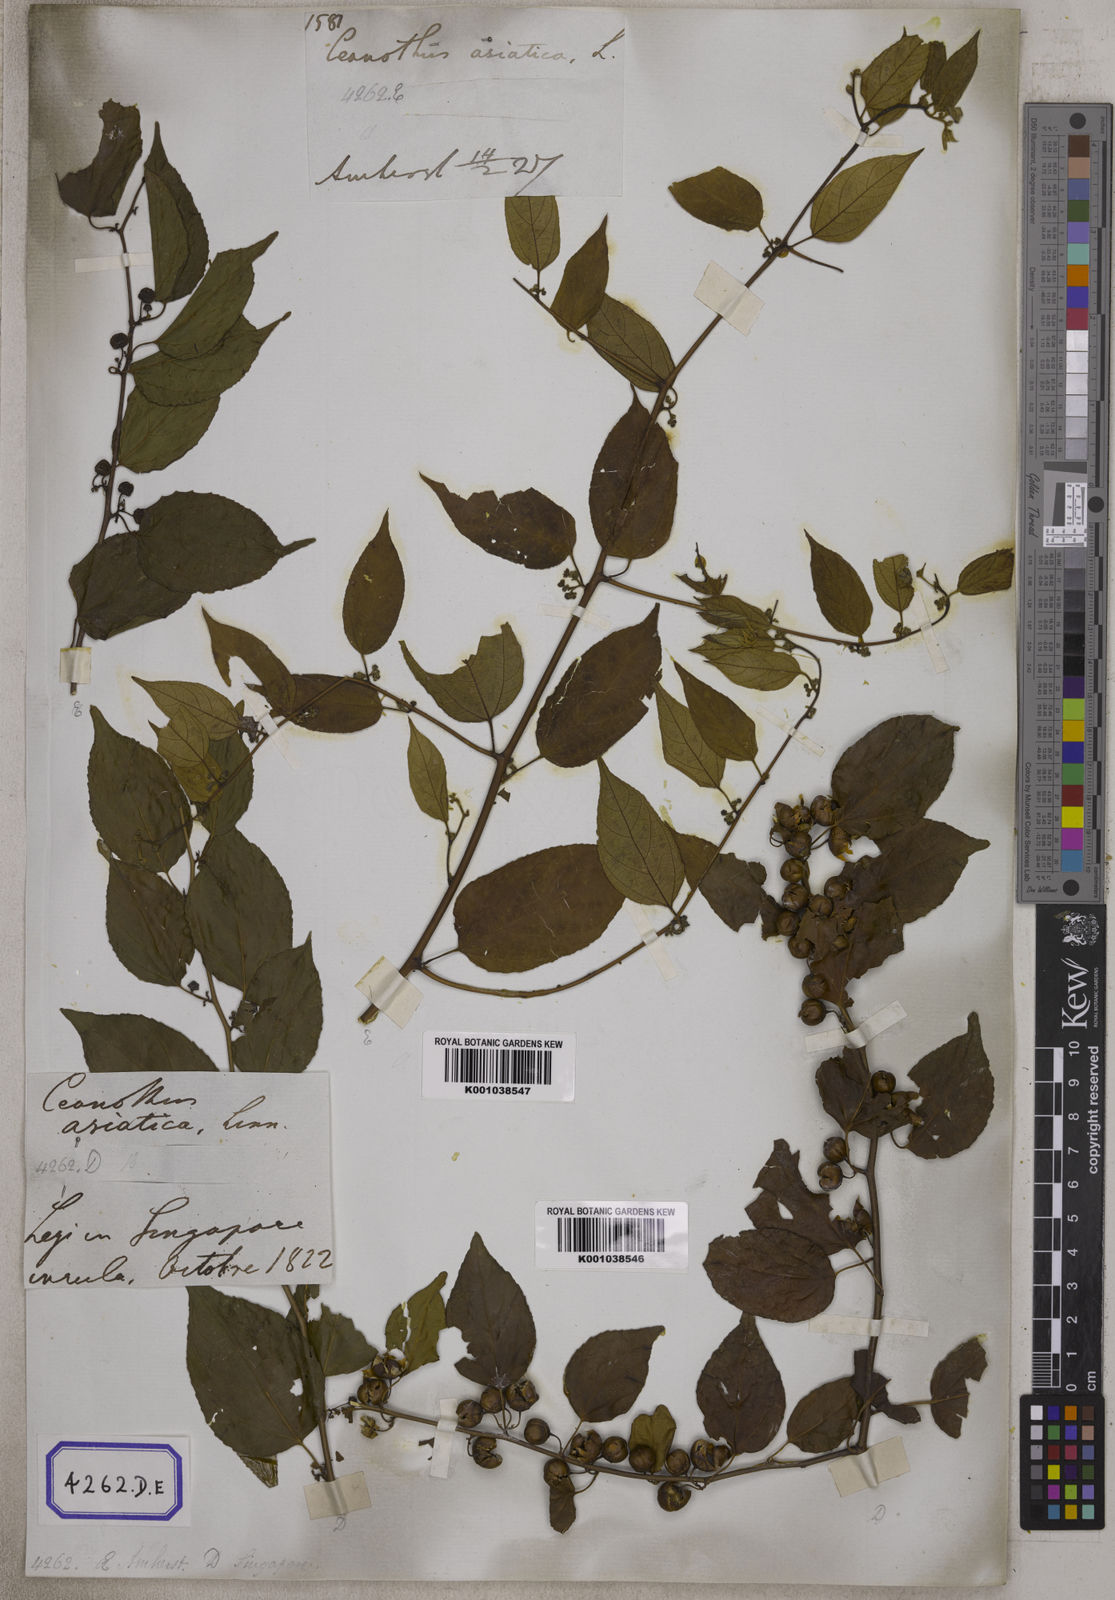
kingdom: Plantae
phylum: Tracheophyta
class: Magnoliopsida
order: Rosales
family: Rhamnaceae
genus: Colubrina
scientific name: Colubrina asiatica
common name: Asian nakedwood
